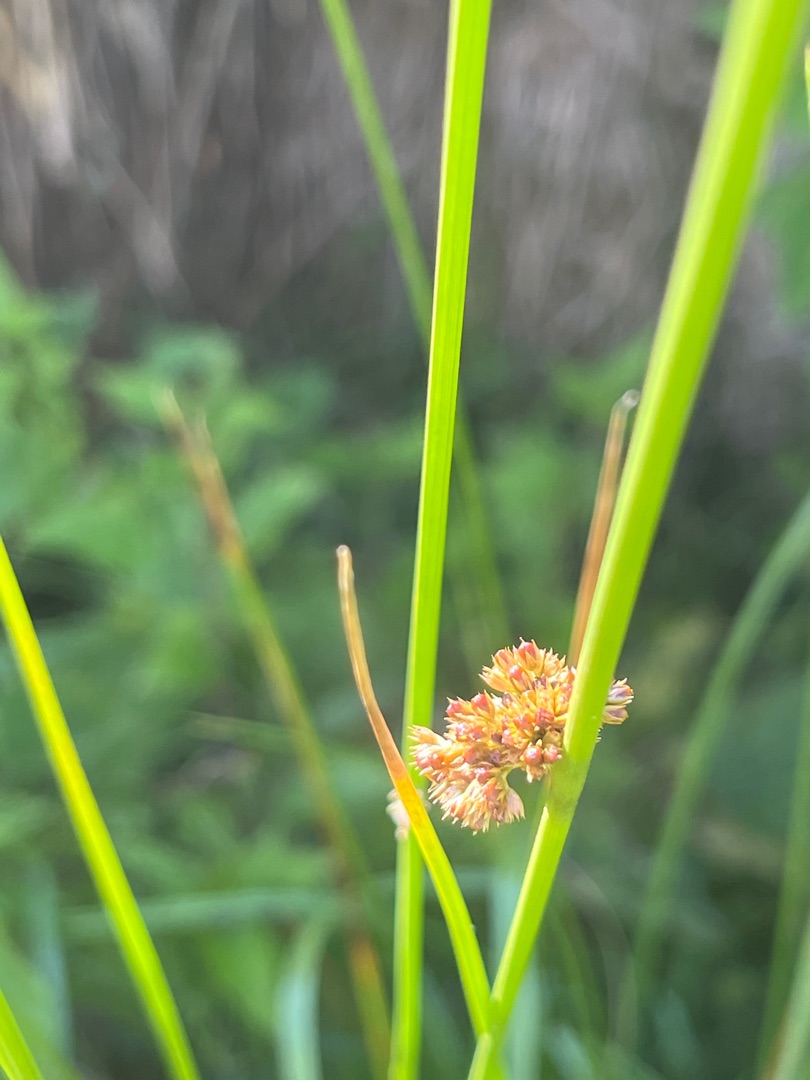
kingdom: Plantae
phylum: Tracheophyta
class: Liliopsida
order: Poales
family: Juncaceae
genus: Juncus
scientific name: Juncus effusus
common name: Lyse-siv
